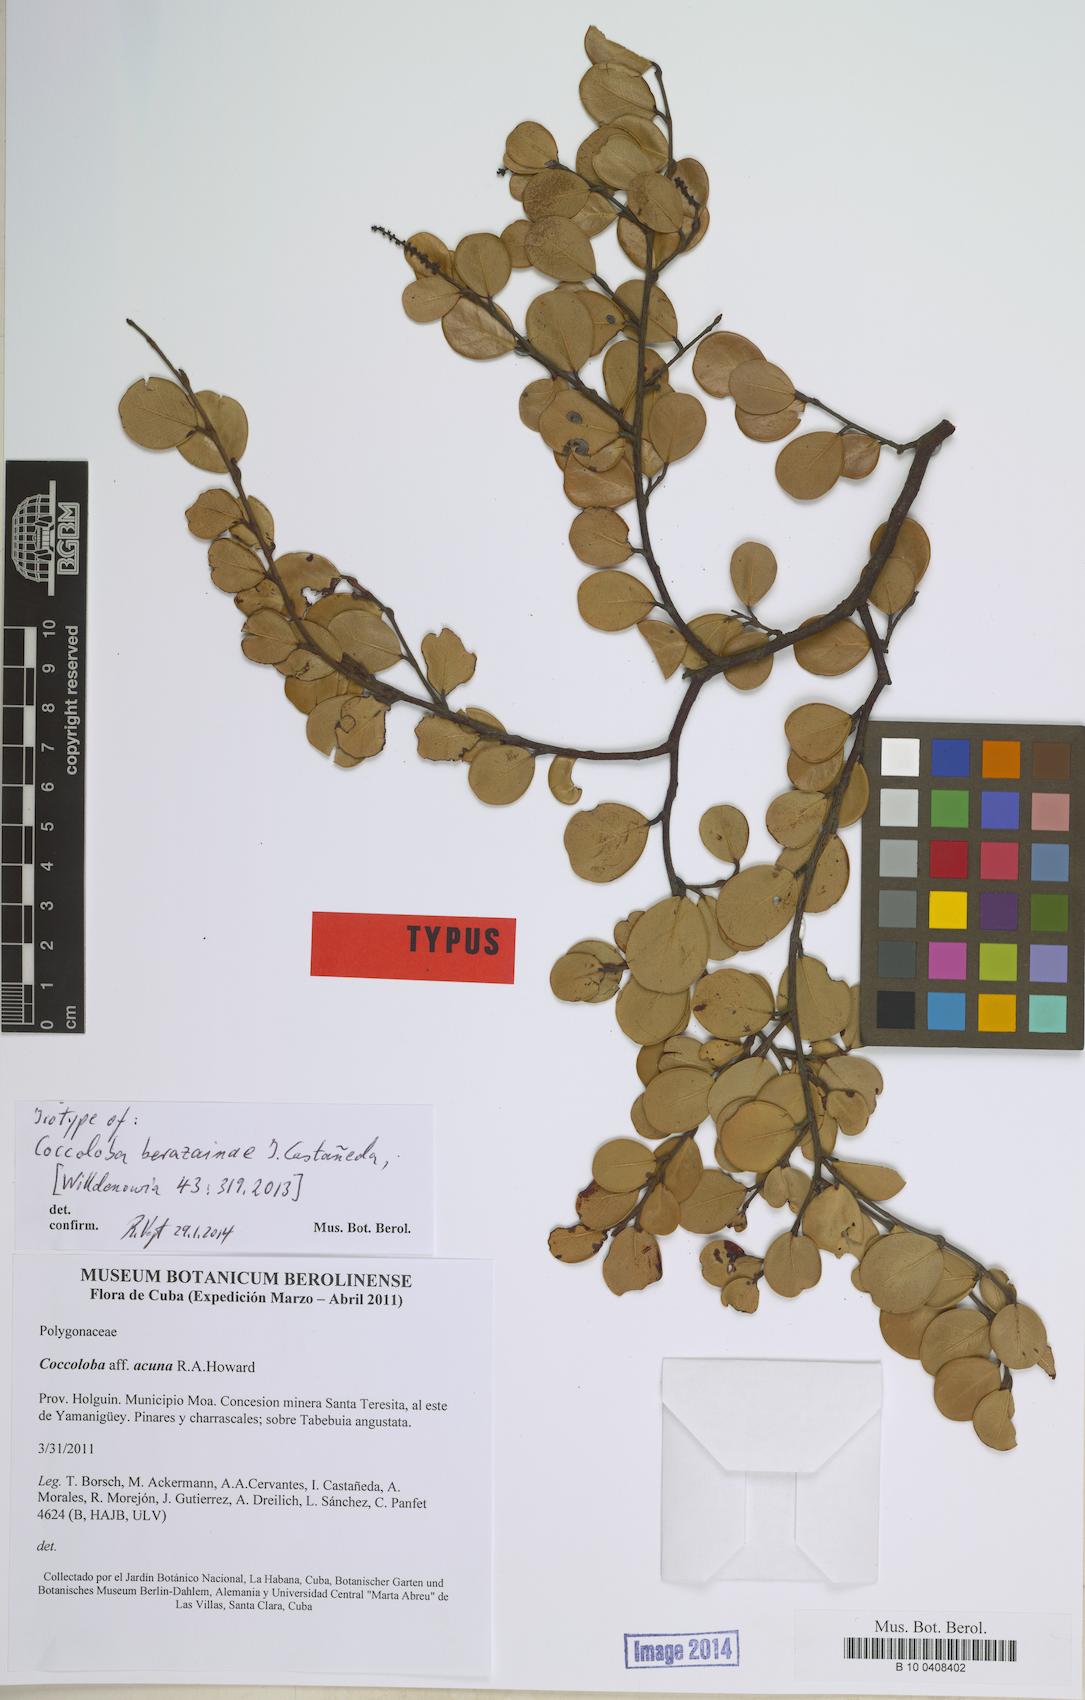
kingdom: Plantae
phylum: Tracheophyta
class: Magnoliopsida
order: Caryophyllales
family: Polygonaceae
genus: Coccoloba
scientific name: Coccoloba berazainiae
